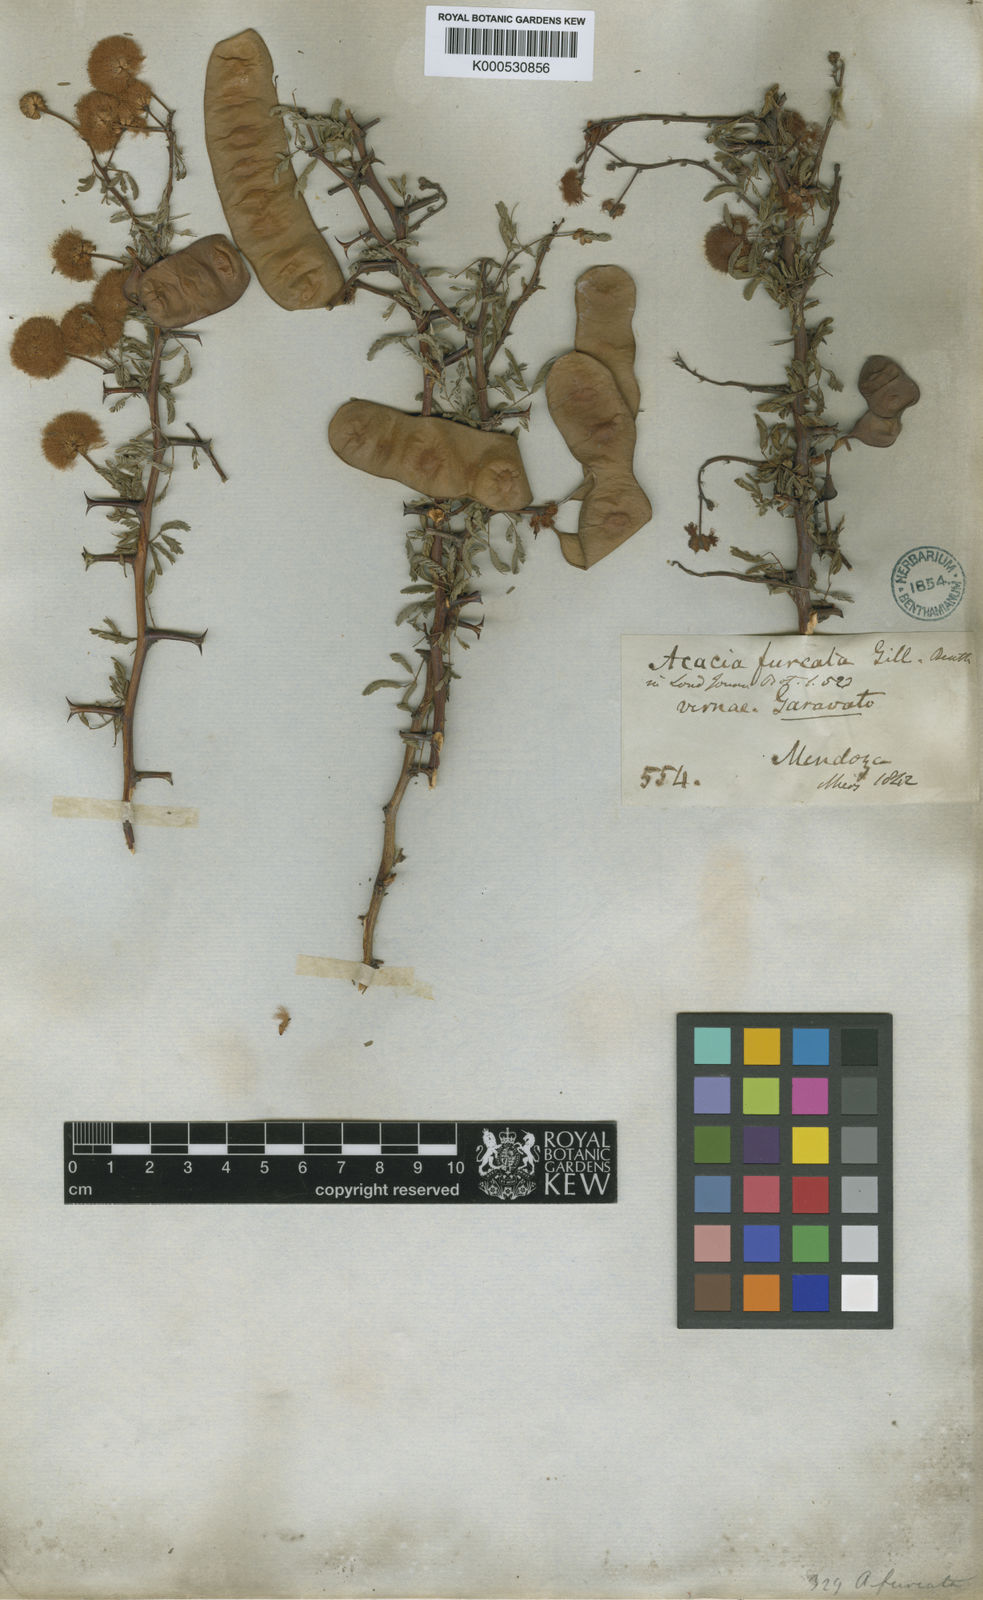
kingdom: Plantae
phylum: Tracheophyta
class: Magnoliopsida
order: Fabales
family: Fabaceae
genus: Senegalia
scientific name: Senegalia gilliesii
